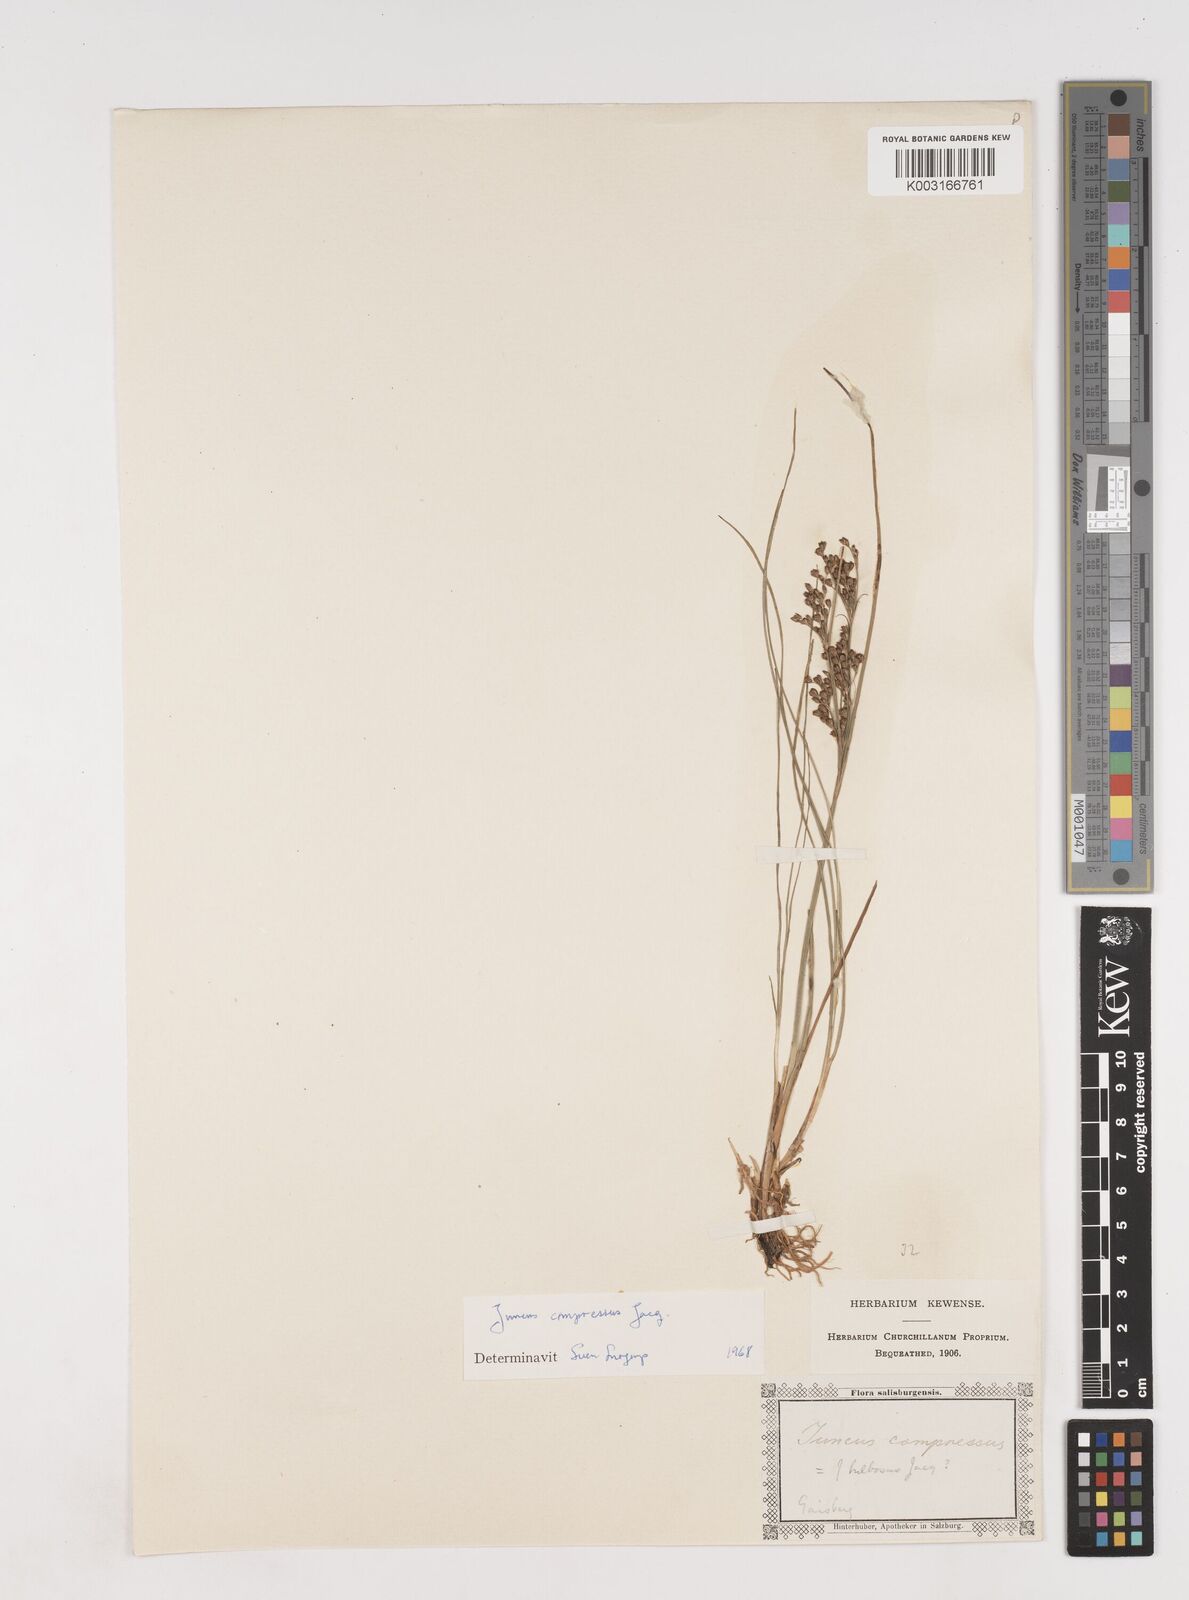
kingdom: Plantae
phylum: Tracheophyta
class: Liliopsida
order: Poales
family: Juncaceae
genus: Juncus
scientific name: Juncus
